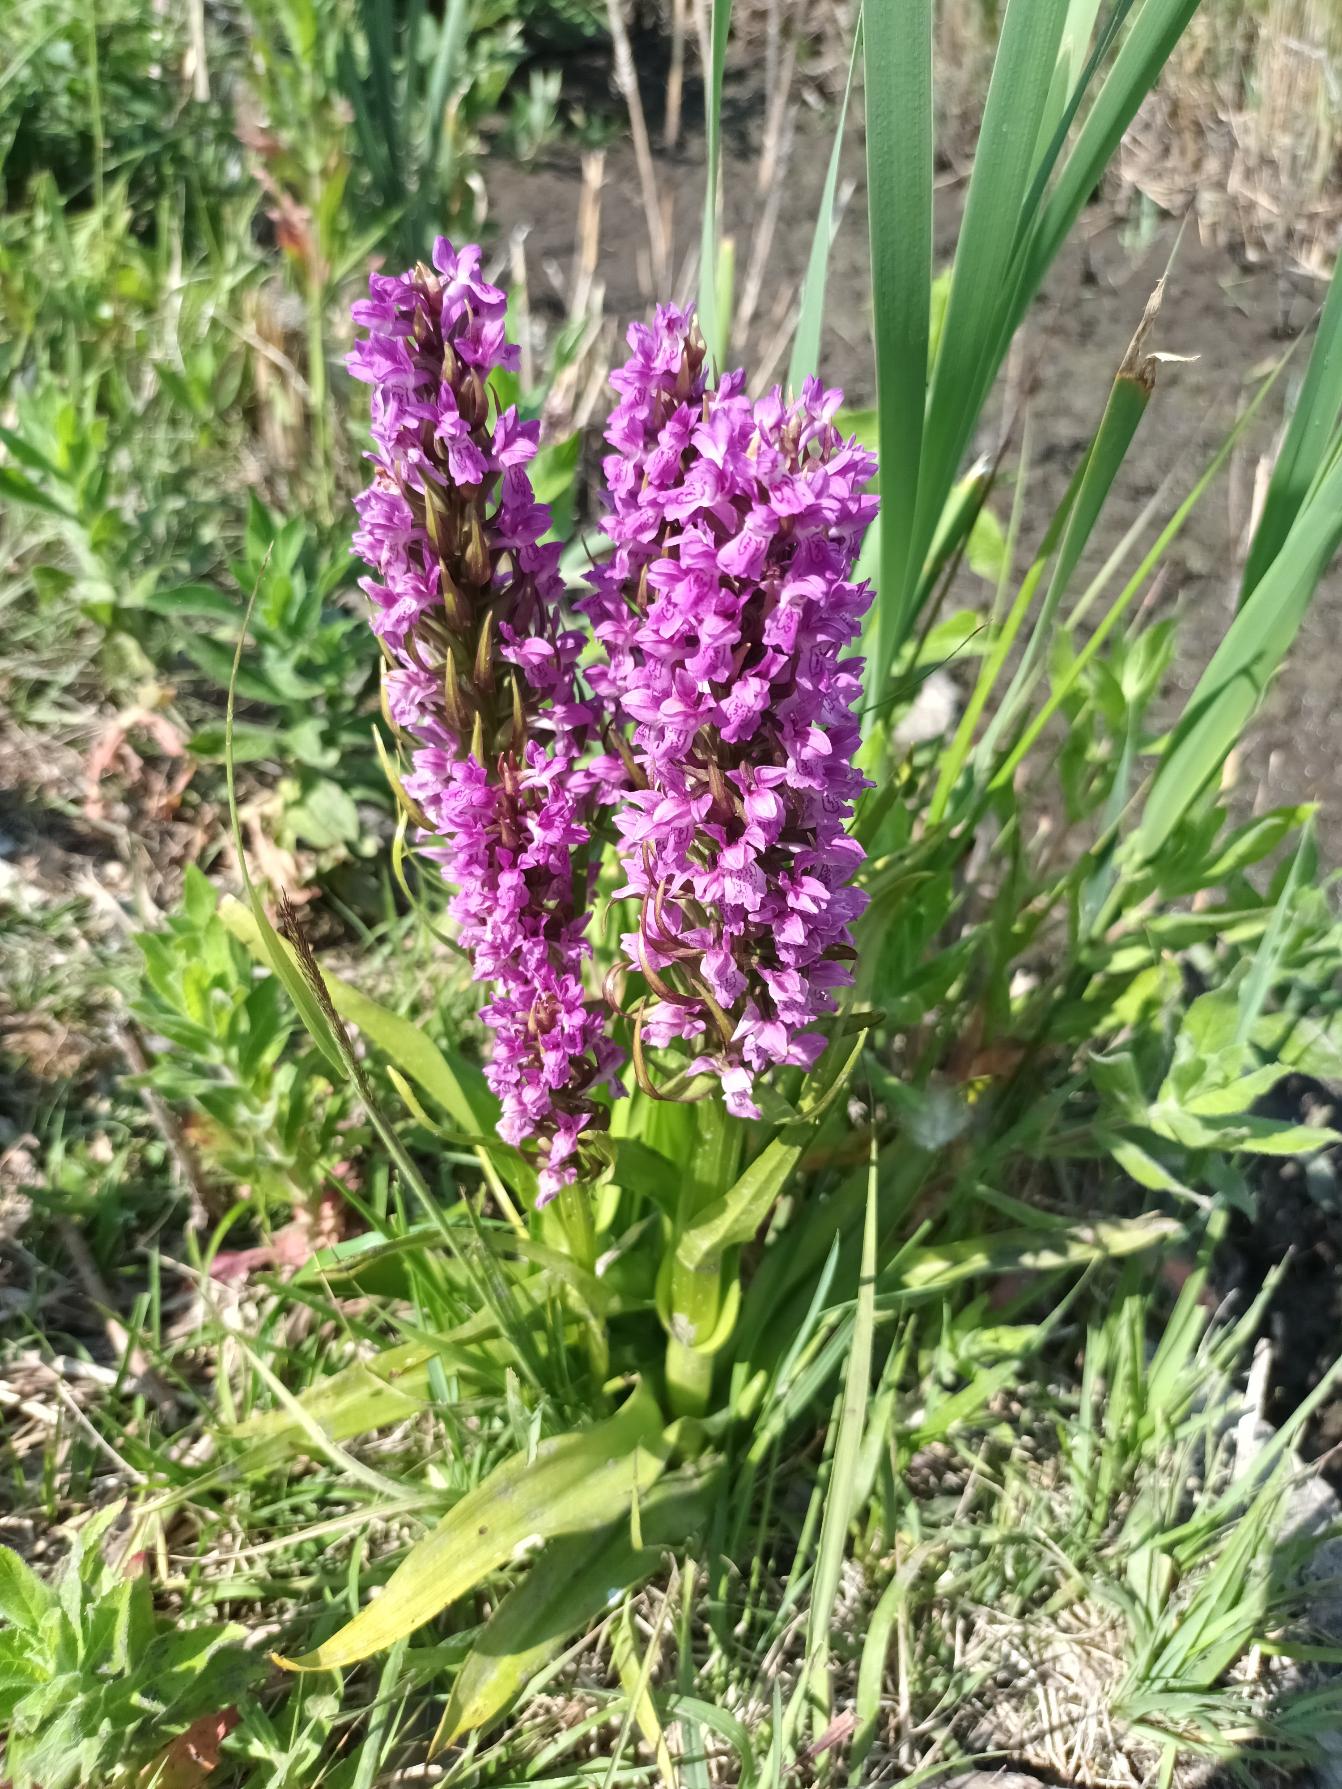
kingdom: Plantae
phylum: Tracheophyta
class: Liliopsida
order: Asparagales
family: Orchidaceae
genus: Dactylorhiza
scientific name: Dactylorhiza incarnata
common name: Kødfarvet gøgeurt
